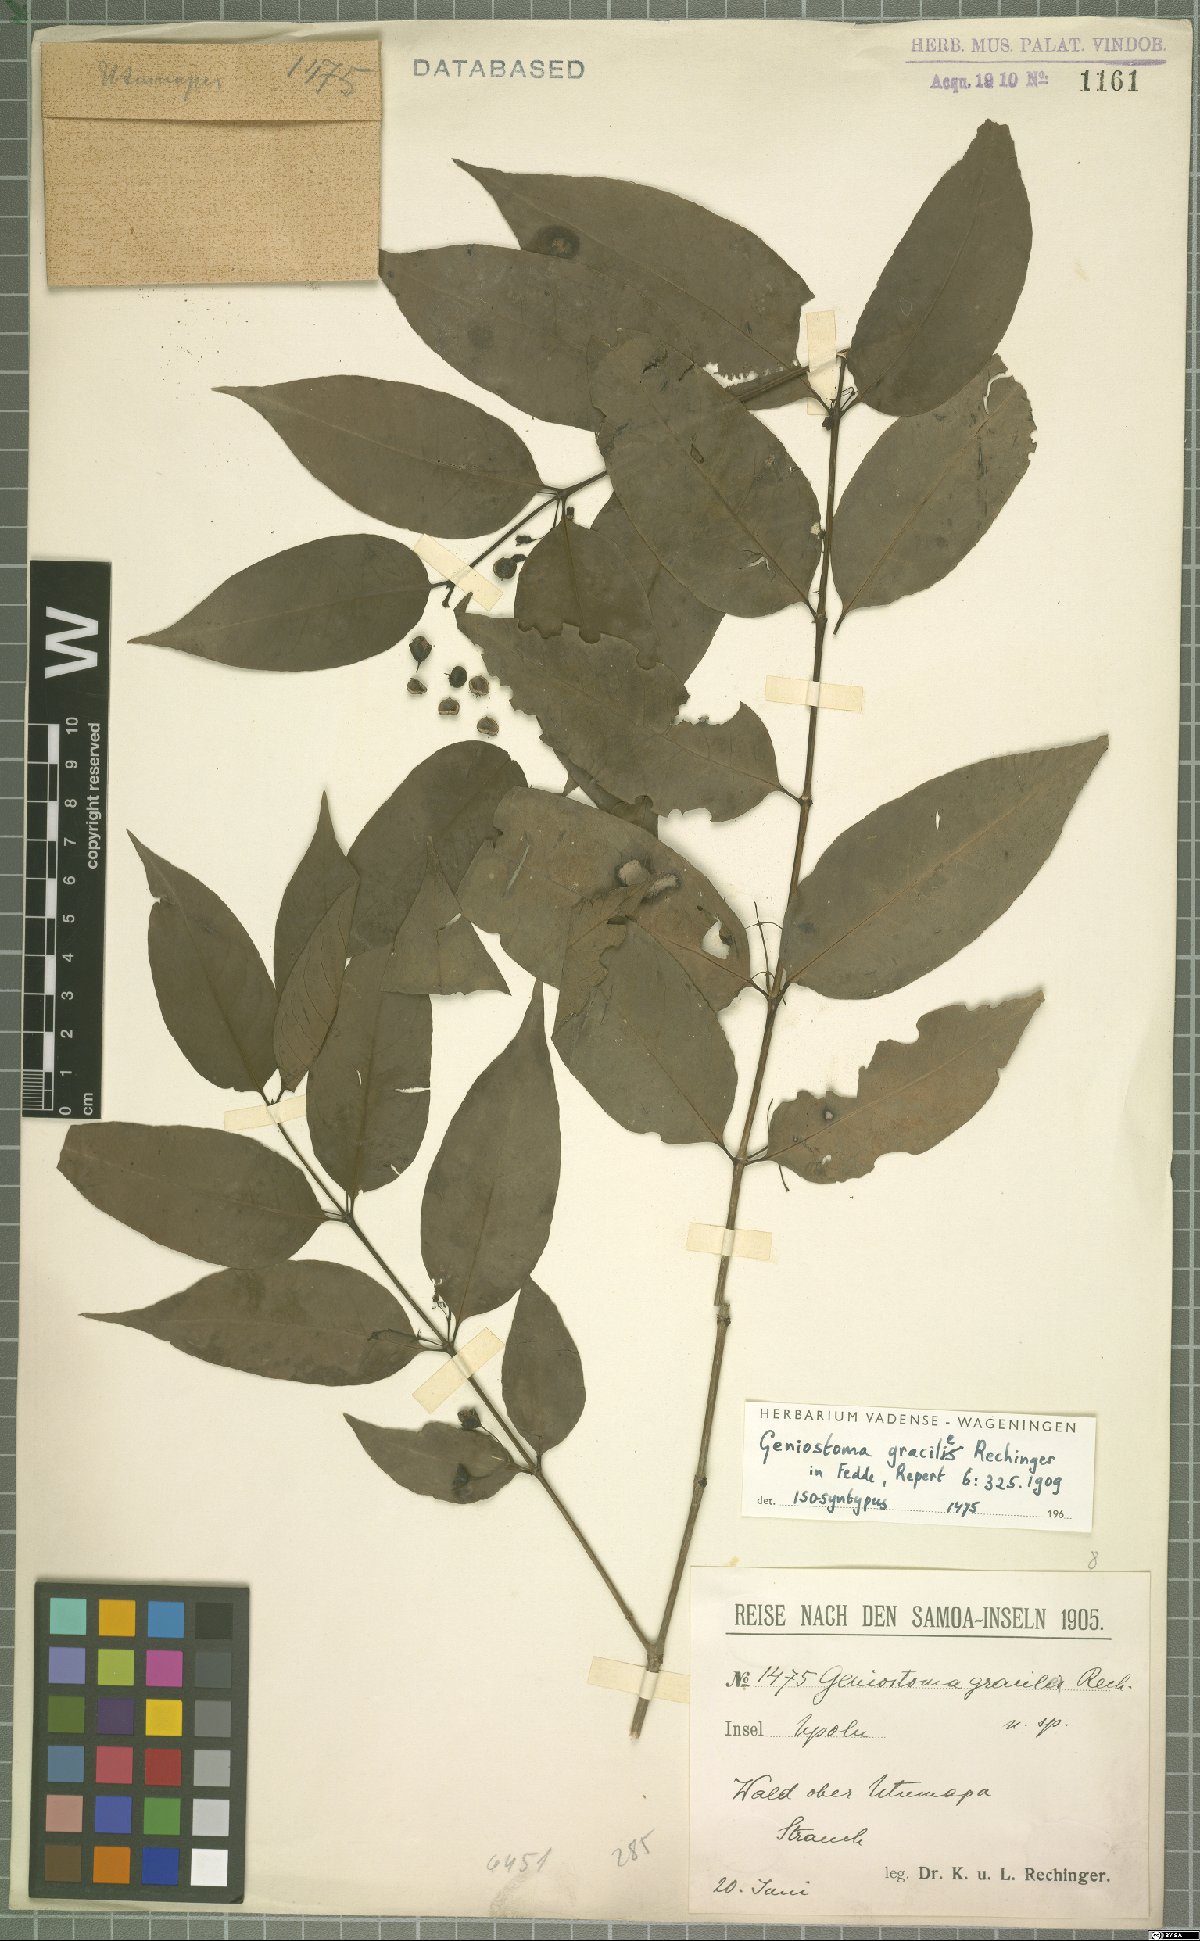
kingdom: Plantae
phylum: Tracheophyta
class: Magnoliopsida
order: Gentianales
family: Loganiaceae
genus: Geniostoma
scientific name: Geniostoma rupestre
